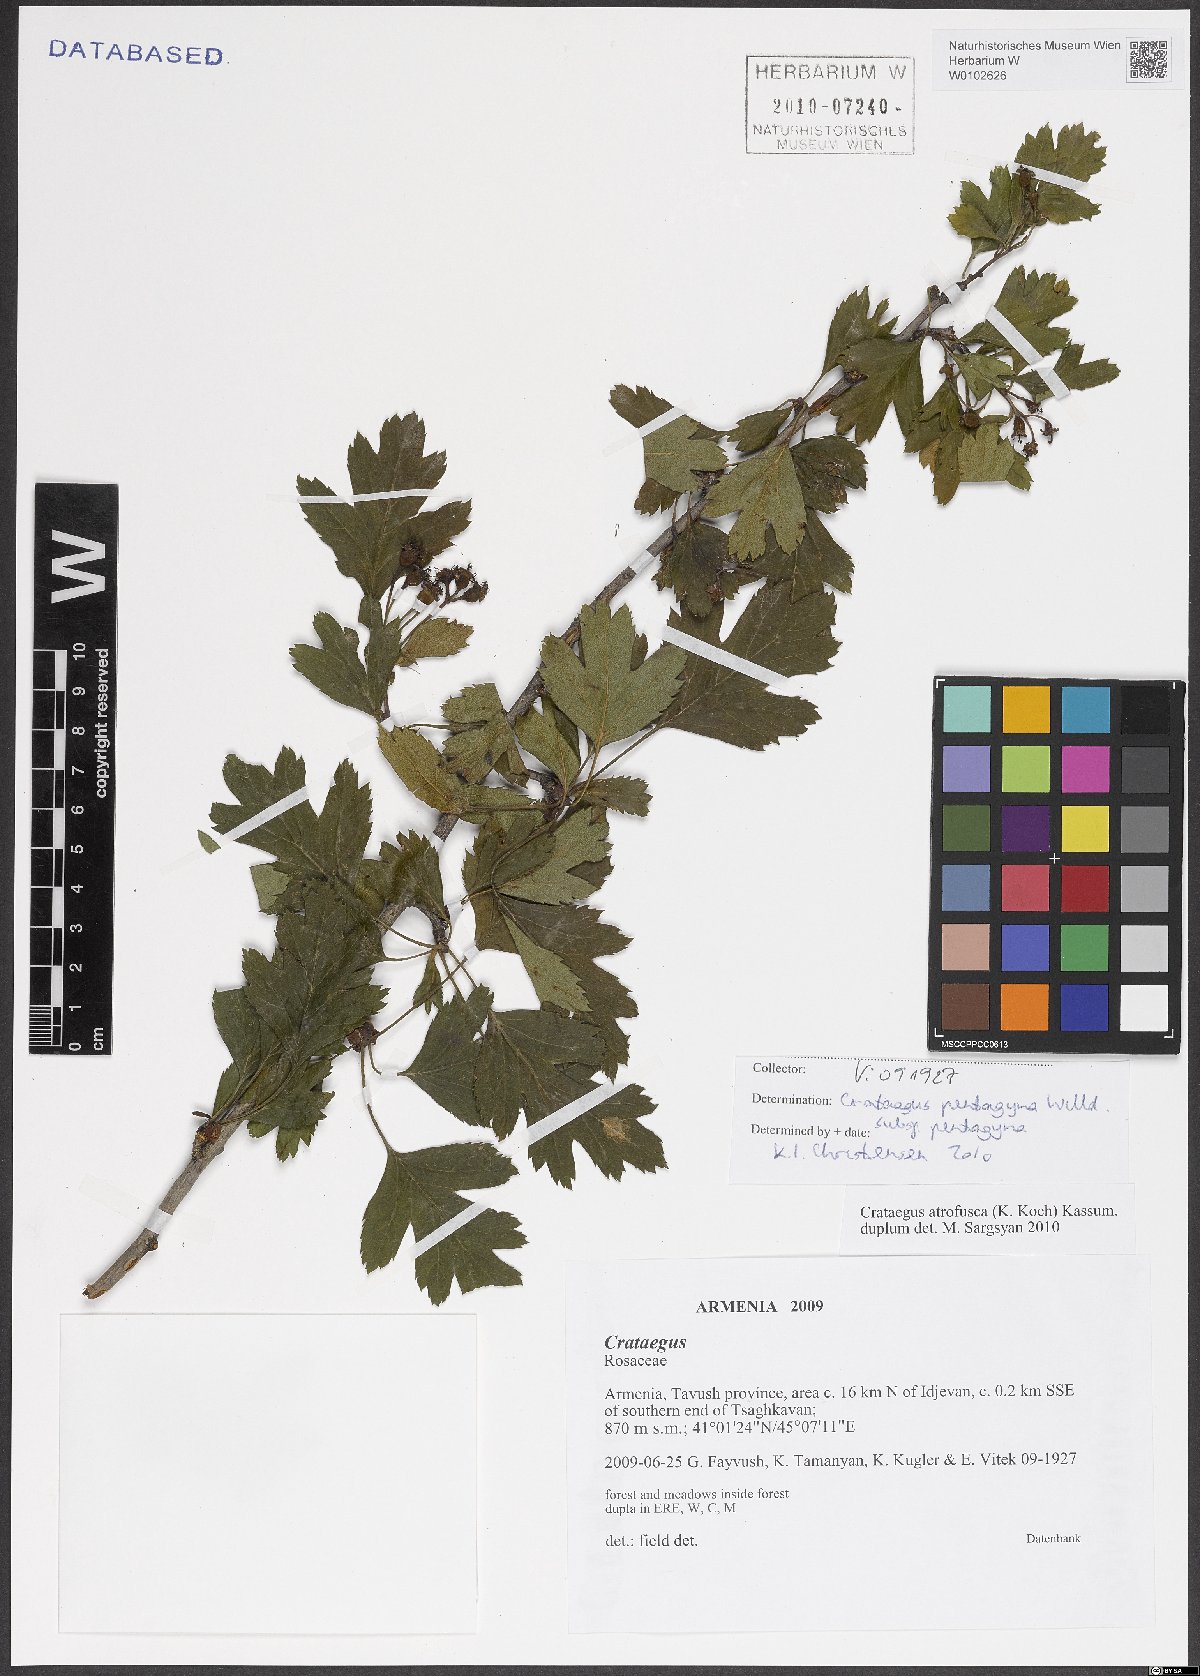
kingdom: Plantae
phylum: Tracheophyta
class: Magnoliopsida
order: Rosales
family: Rosaceae
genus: Crataegus
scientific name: Crataegus pentagyna
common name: Small-flowered black hawthorn
